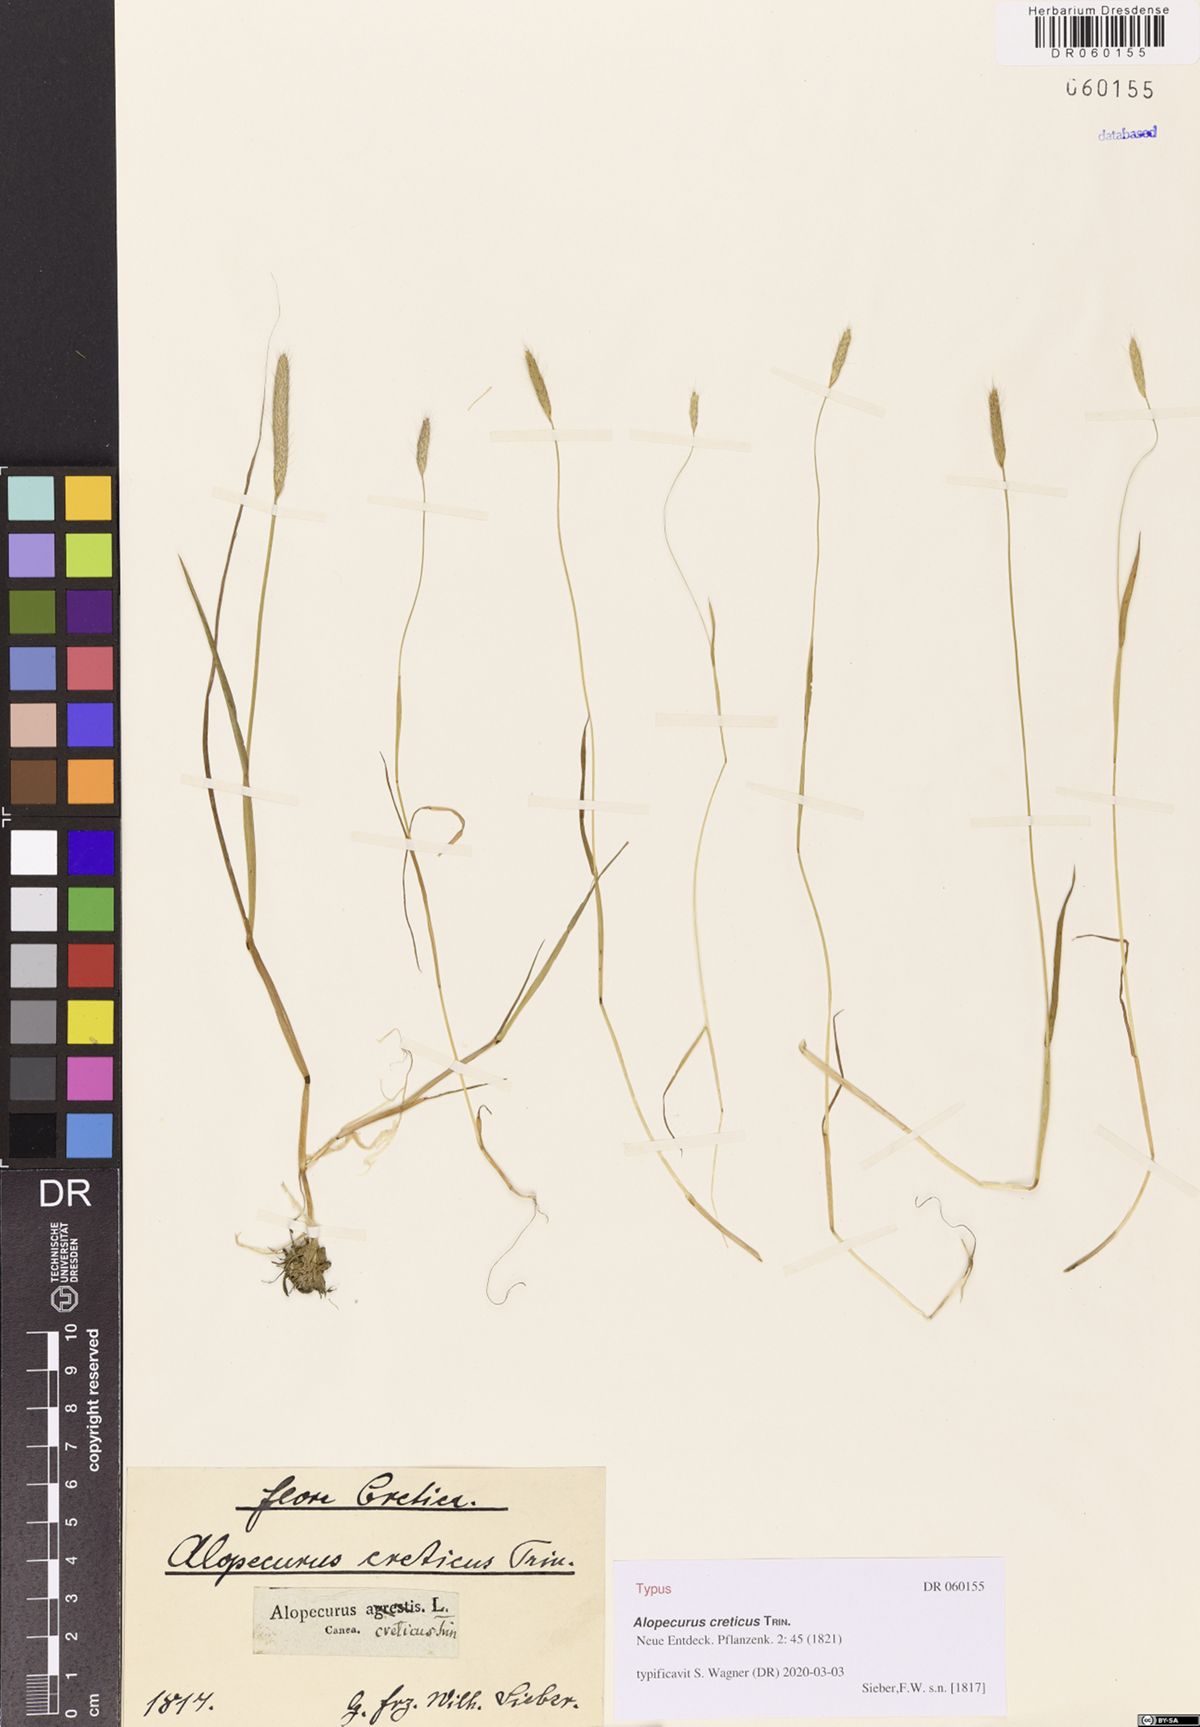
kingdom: Plantae
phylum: Tracheophyta
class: Liliopsida
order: Poales
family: Poaceae
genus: Alopecurus
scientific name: Alopecurus creticus
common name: Cretan meadow foxtail
